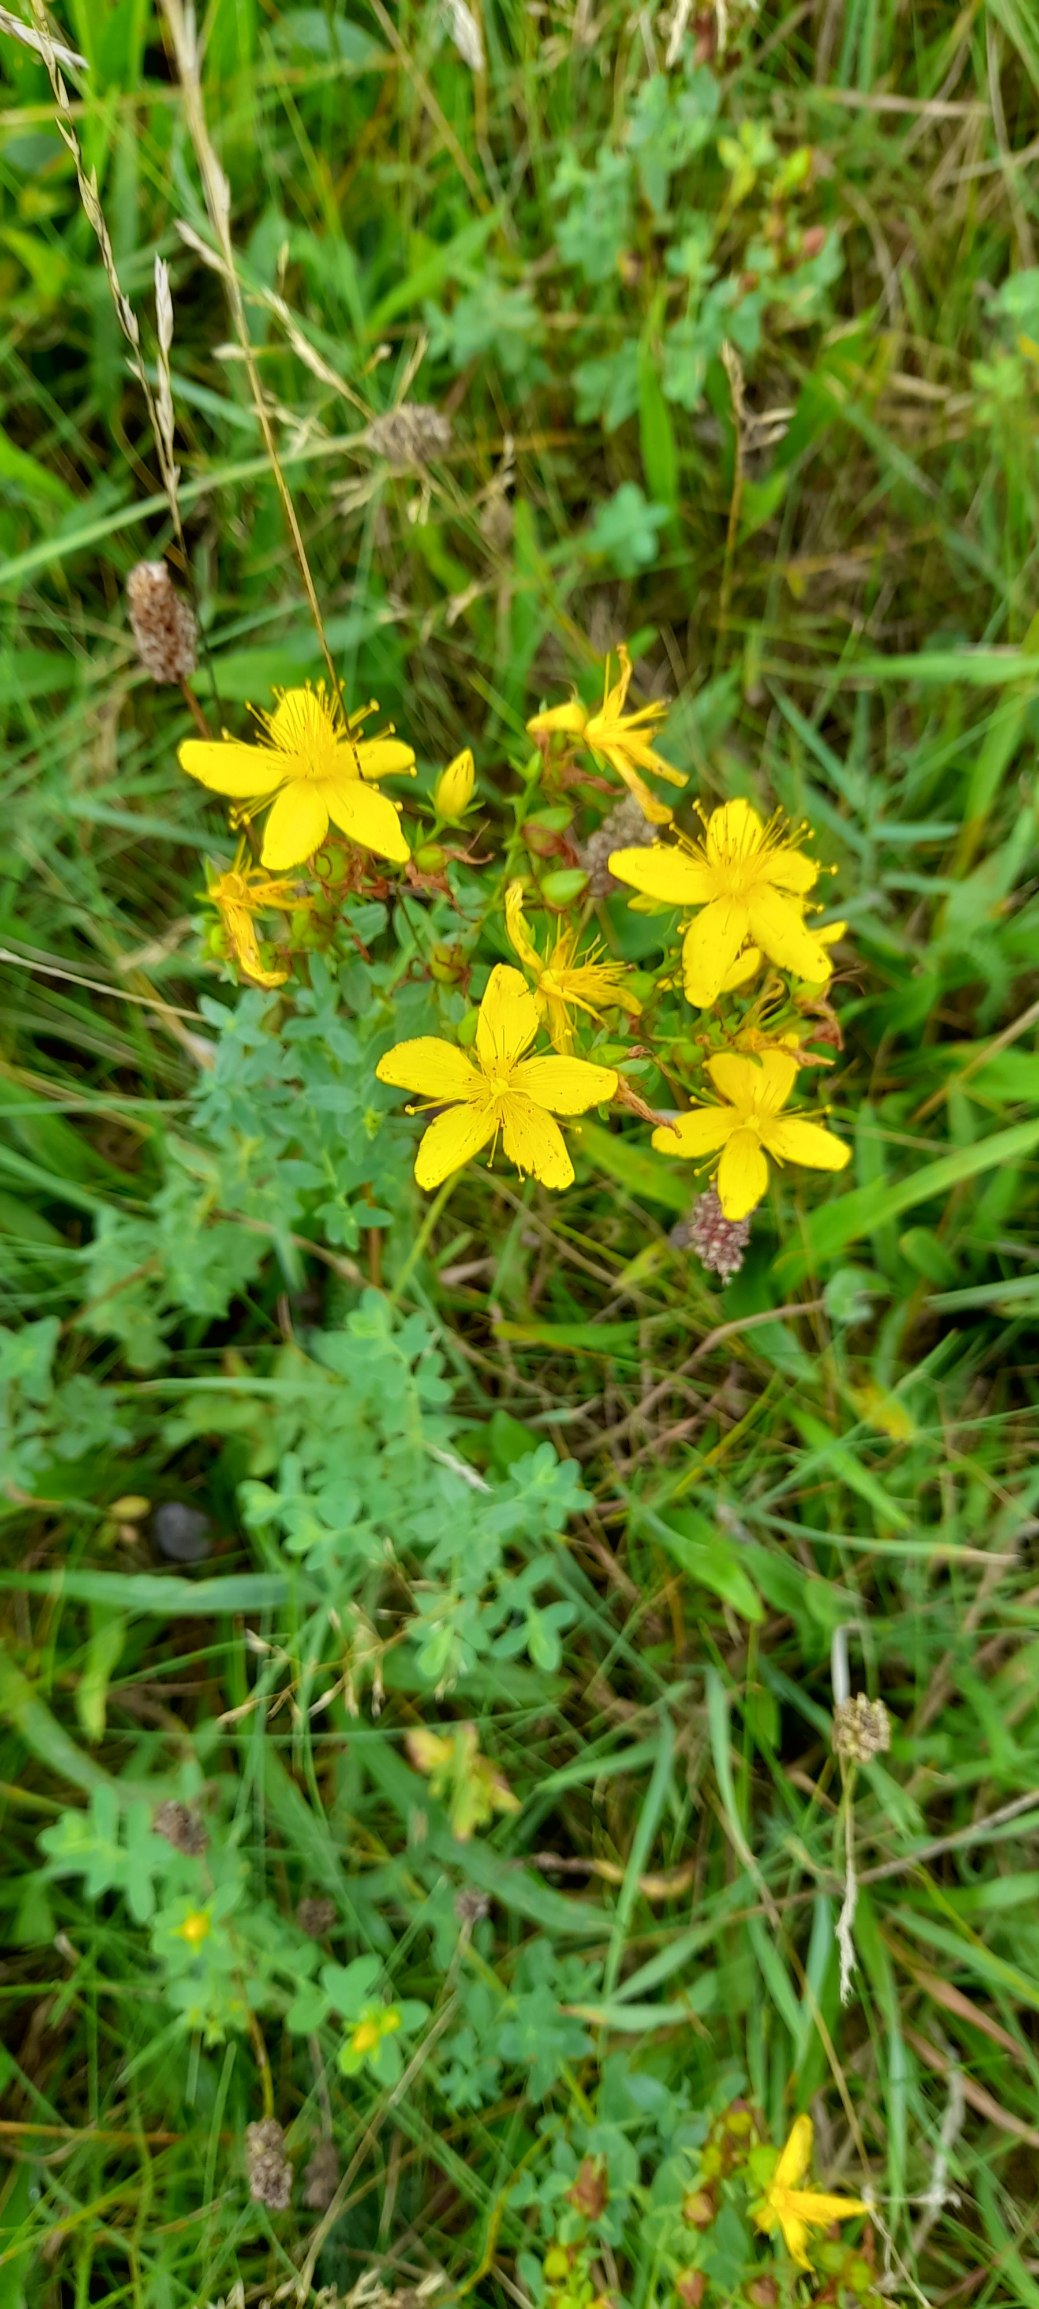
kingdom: Plantae
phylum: Tracheophyta
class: Magnoliopsida
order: Malpighiales
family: Hypericaceae
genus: Hypericum
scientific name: Hypericum perforatum
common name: Prikbladet perikon
